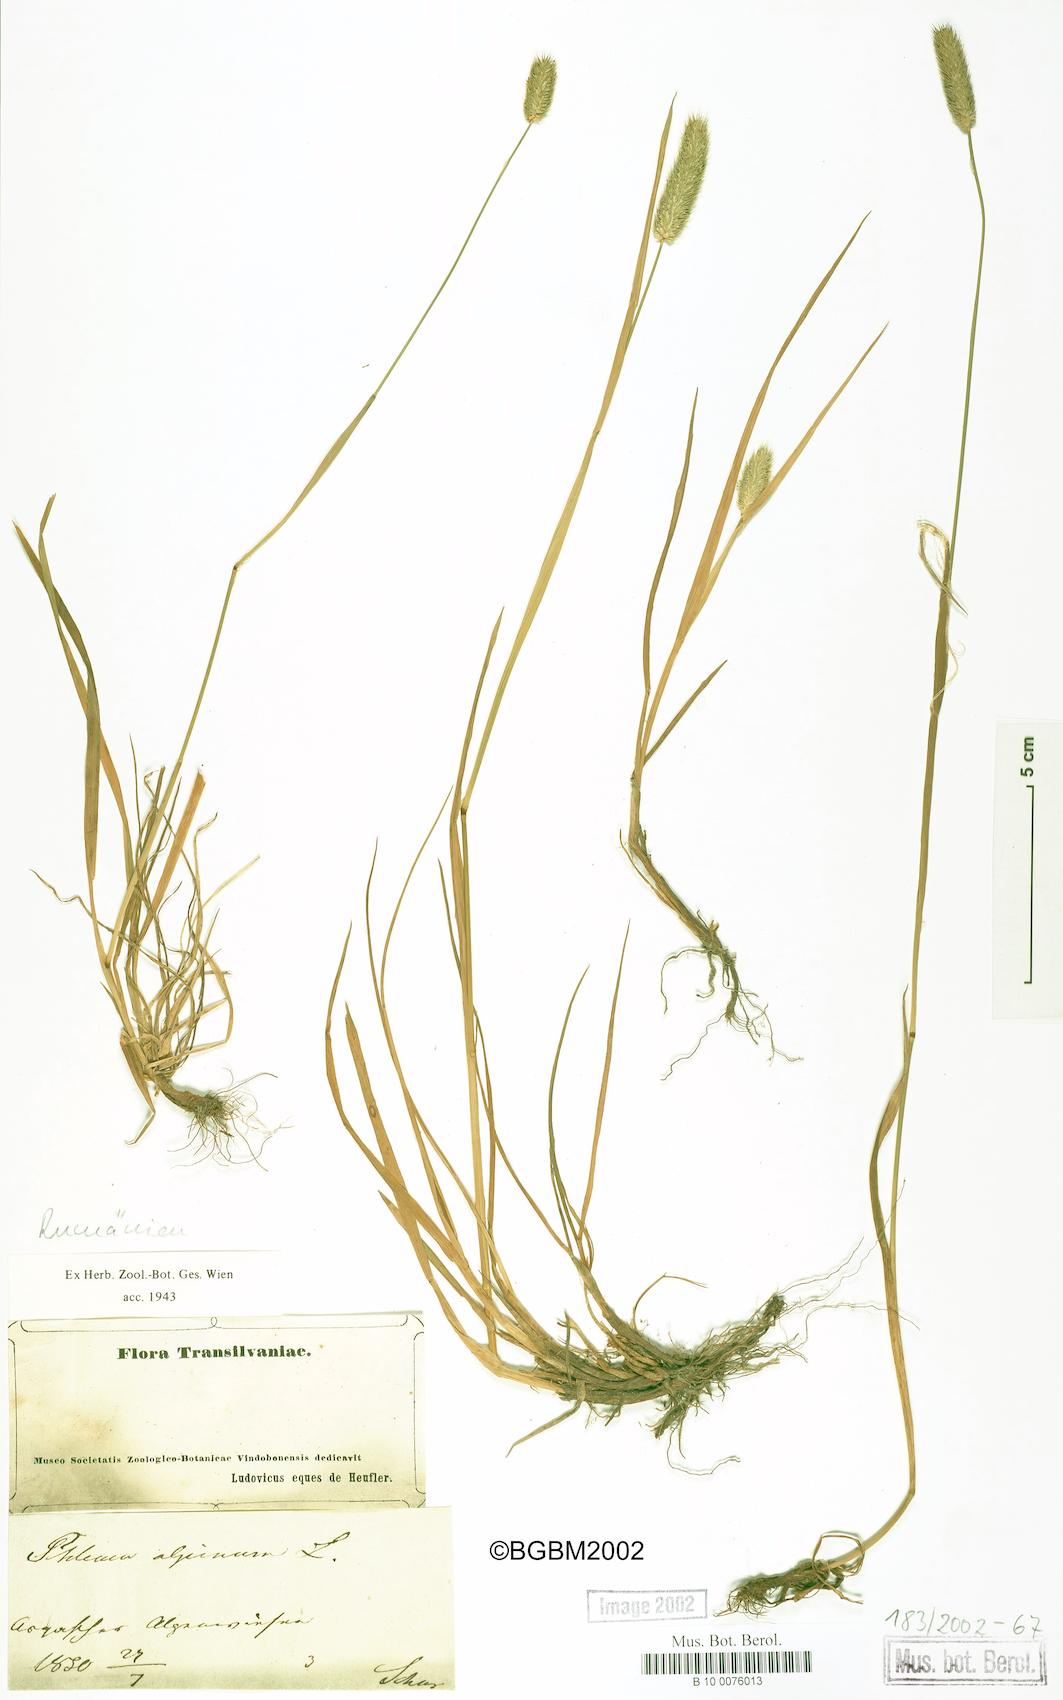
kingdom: Plantae
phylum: Tracheophyta
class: Liliopsida
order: Poales
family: Poaceae
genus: Phleum
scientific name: Phleum alpinum
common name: Alpine cat's-tail
